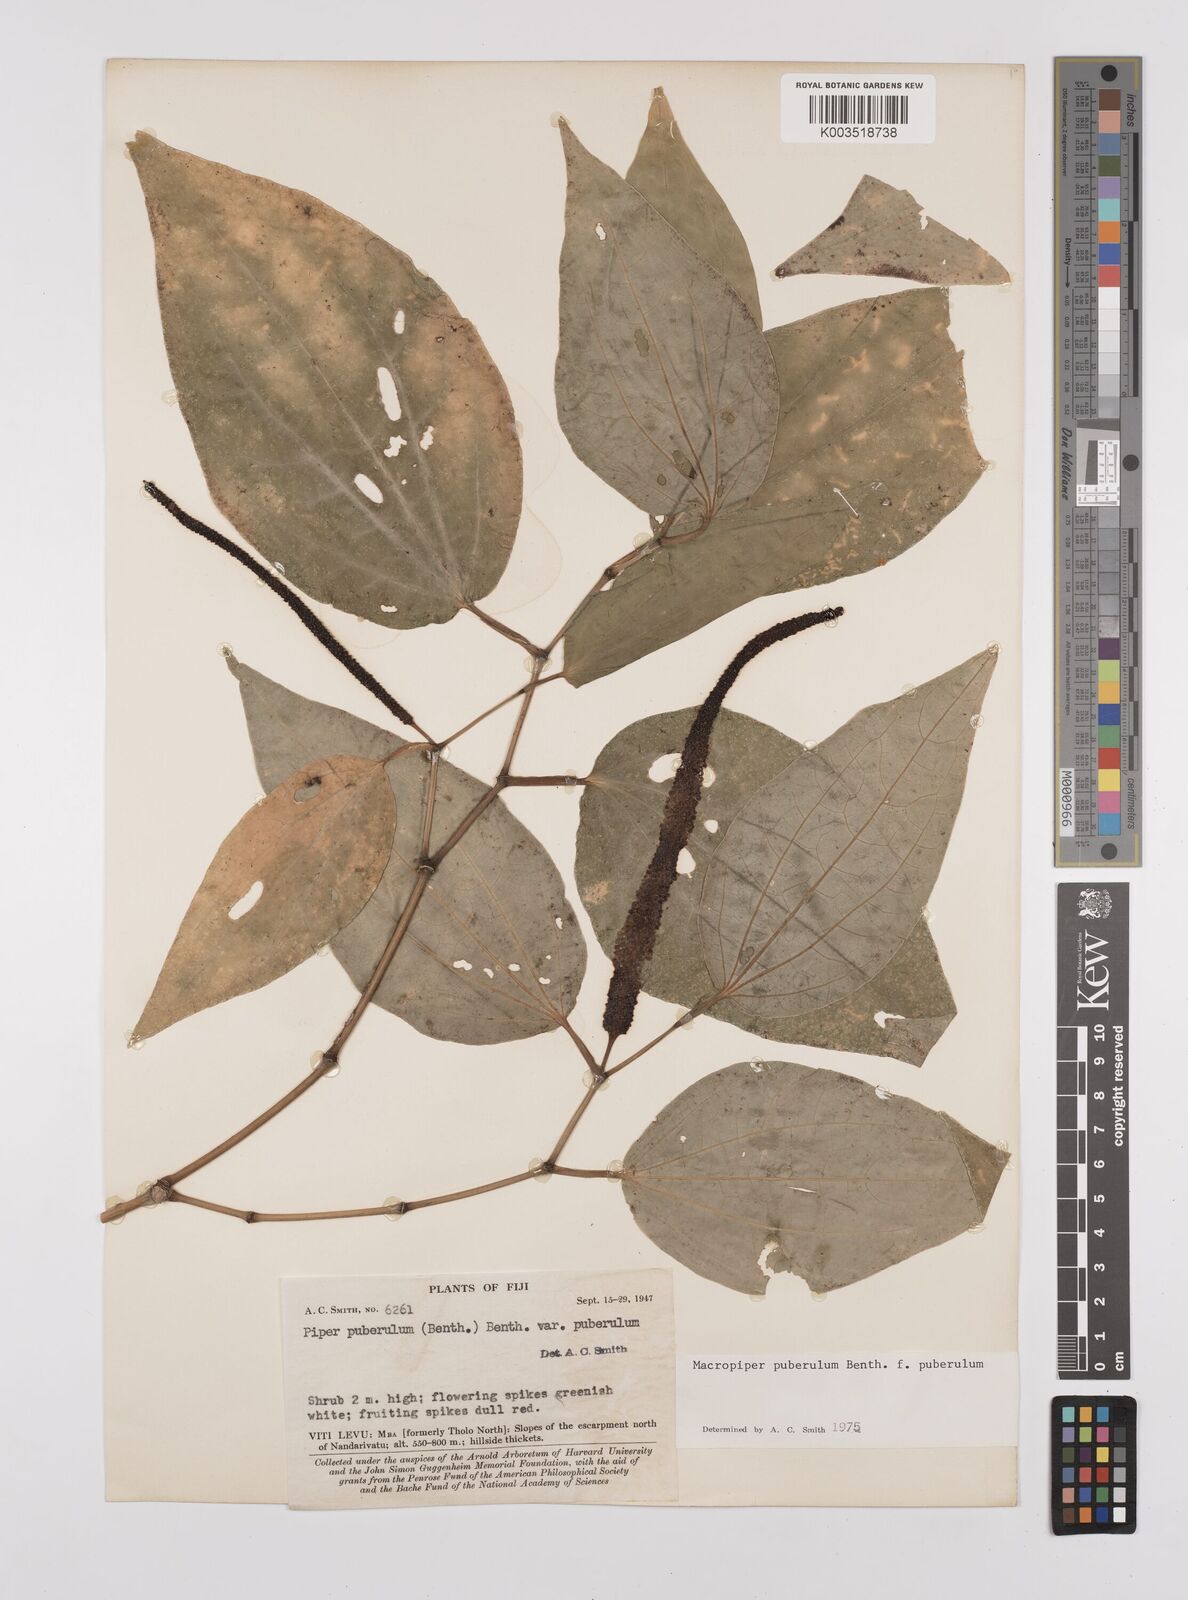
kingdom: Plantae
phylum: Tracheophyta
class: Magnoliopsida
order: Piperales
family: Piperaceae
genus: Macropiper
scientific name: Macropiper puberulum
